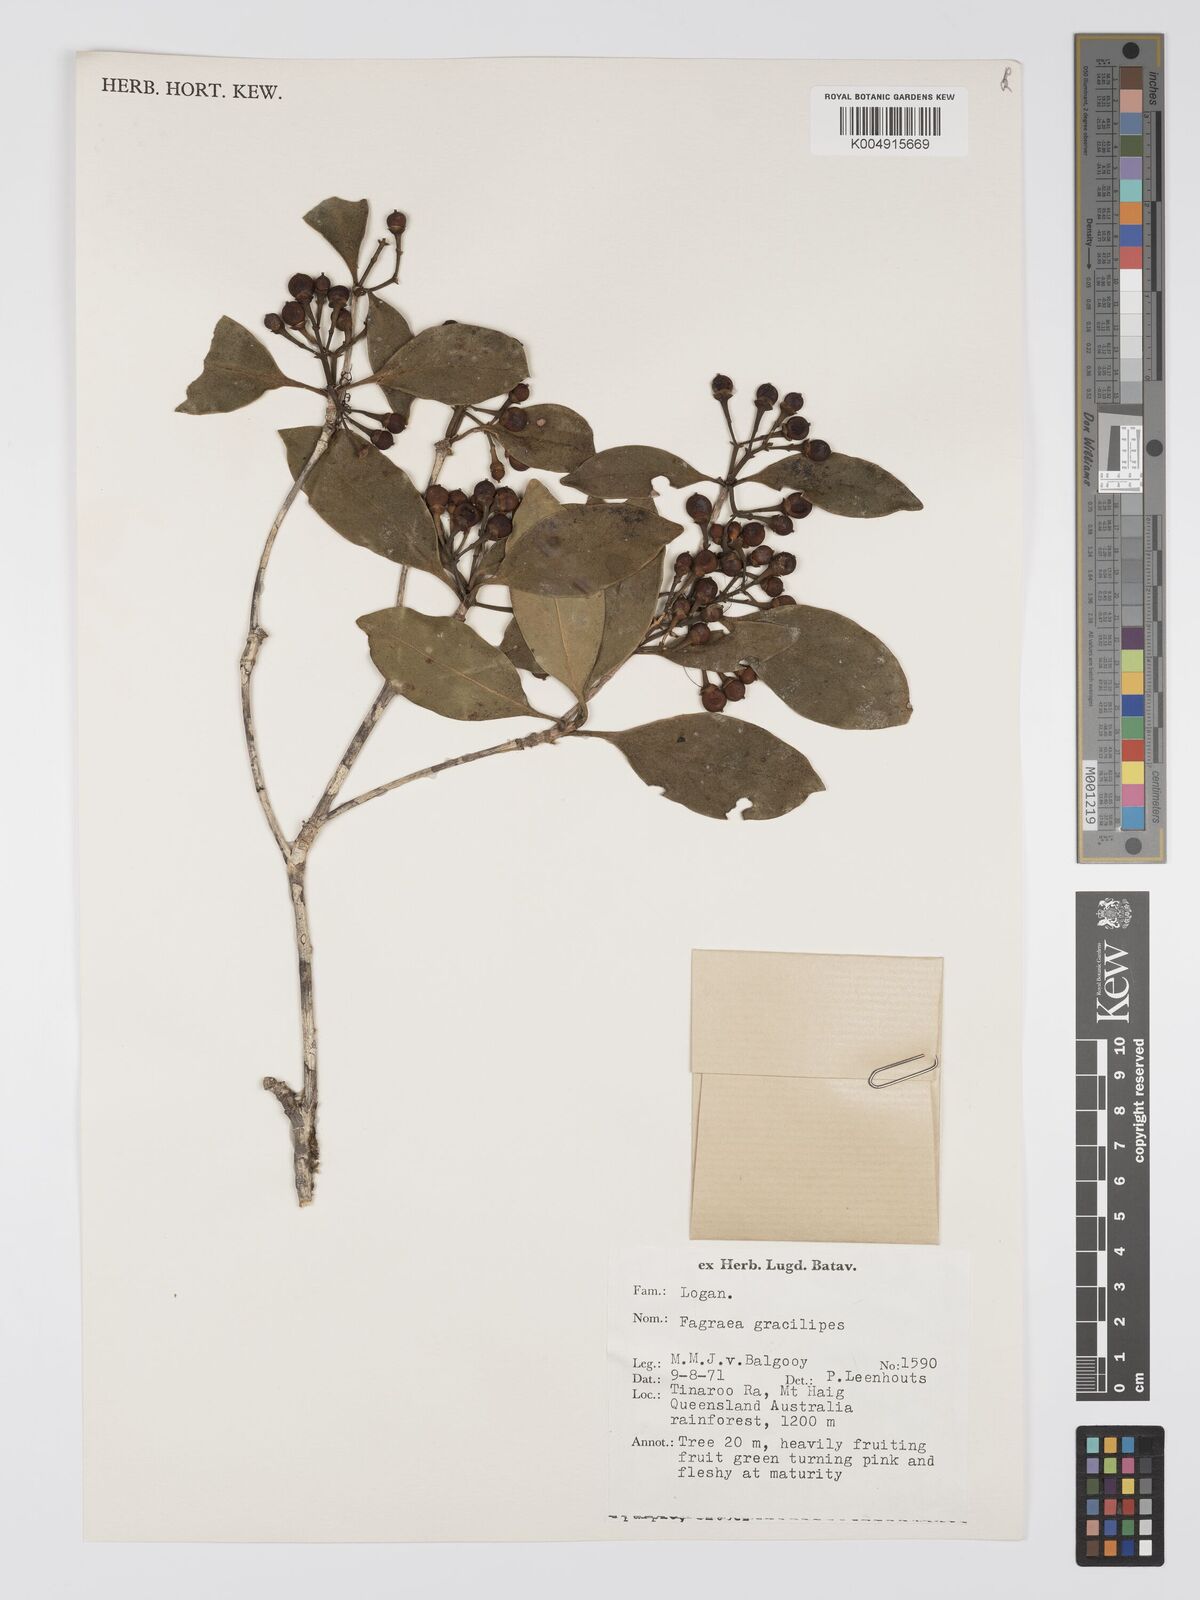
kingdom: Plantae
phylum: Tracheophyta
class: Magnoliopsida
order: Gentianales
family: Gentianaceae
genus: Fagraea
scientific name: Fagraea gracilipes
